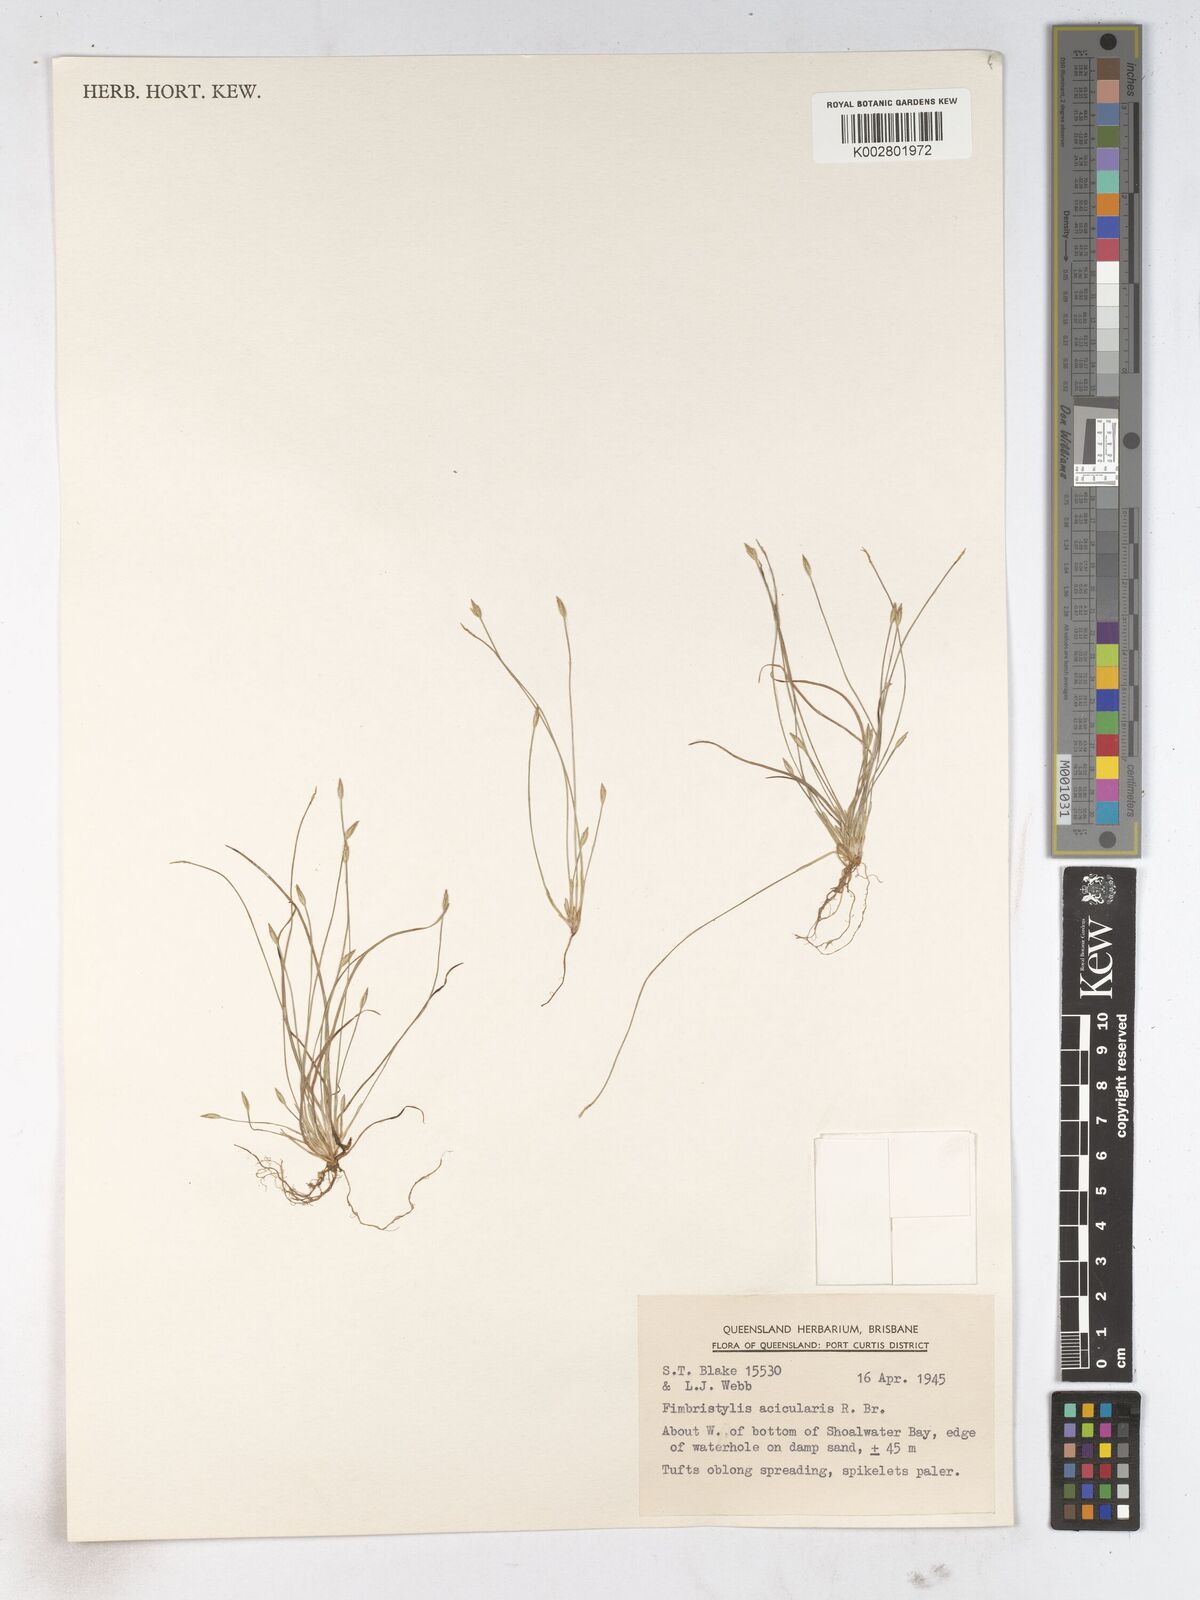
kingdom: Plantae
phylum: Tracheophyta
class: Liliopsida
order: Poales
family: Cyperaceae
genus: Fimbristylis
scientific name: Fimbristylis acicularis
